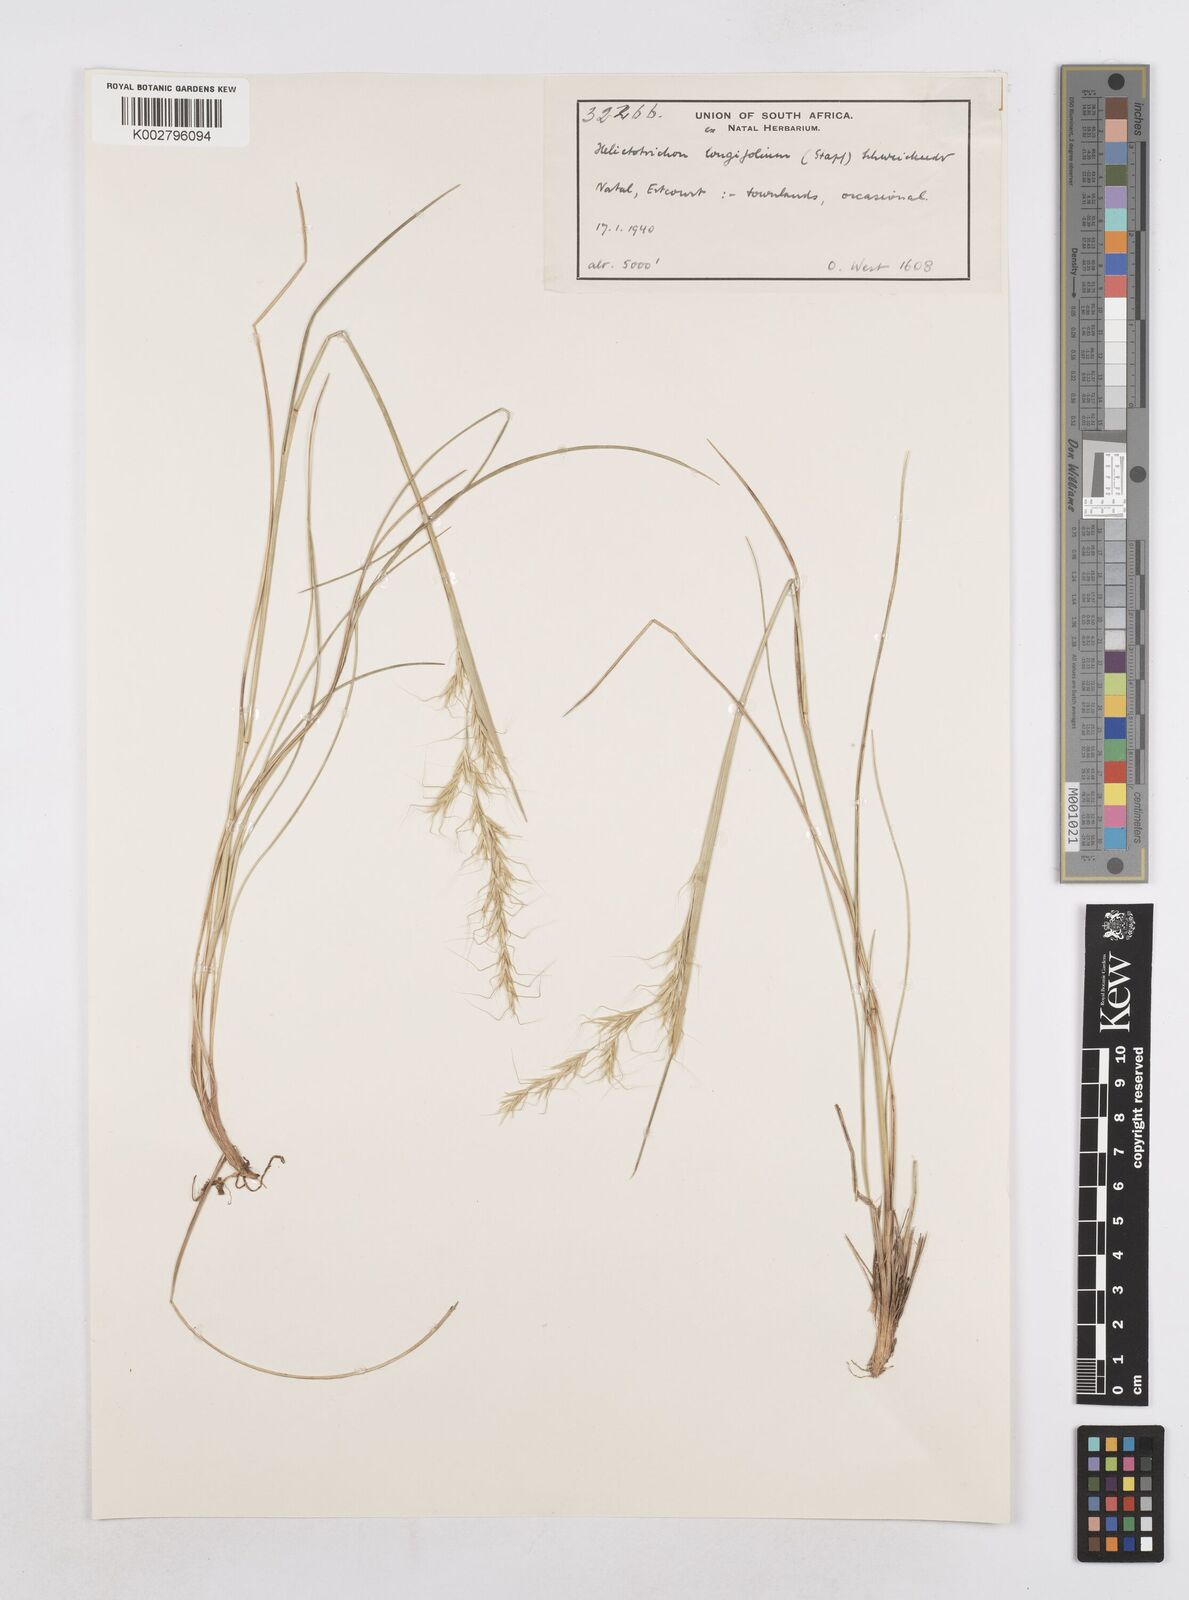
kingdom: Plantae
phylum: Tracheophyta
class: Liliopsida
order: Poales
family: Poaceae
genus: Trisetopsis
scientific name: Trisetopsis longifolia
